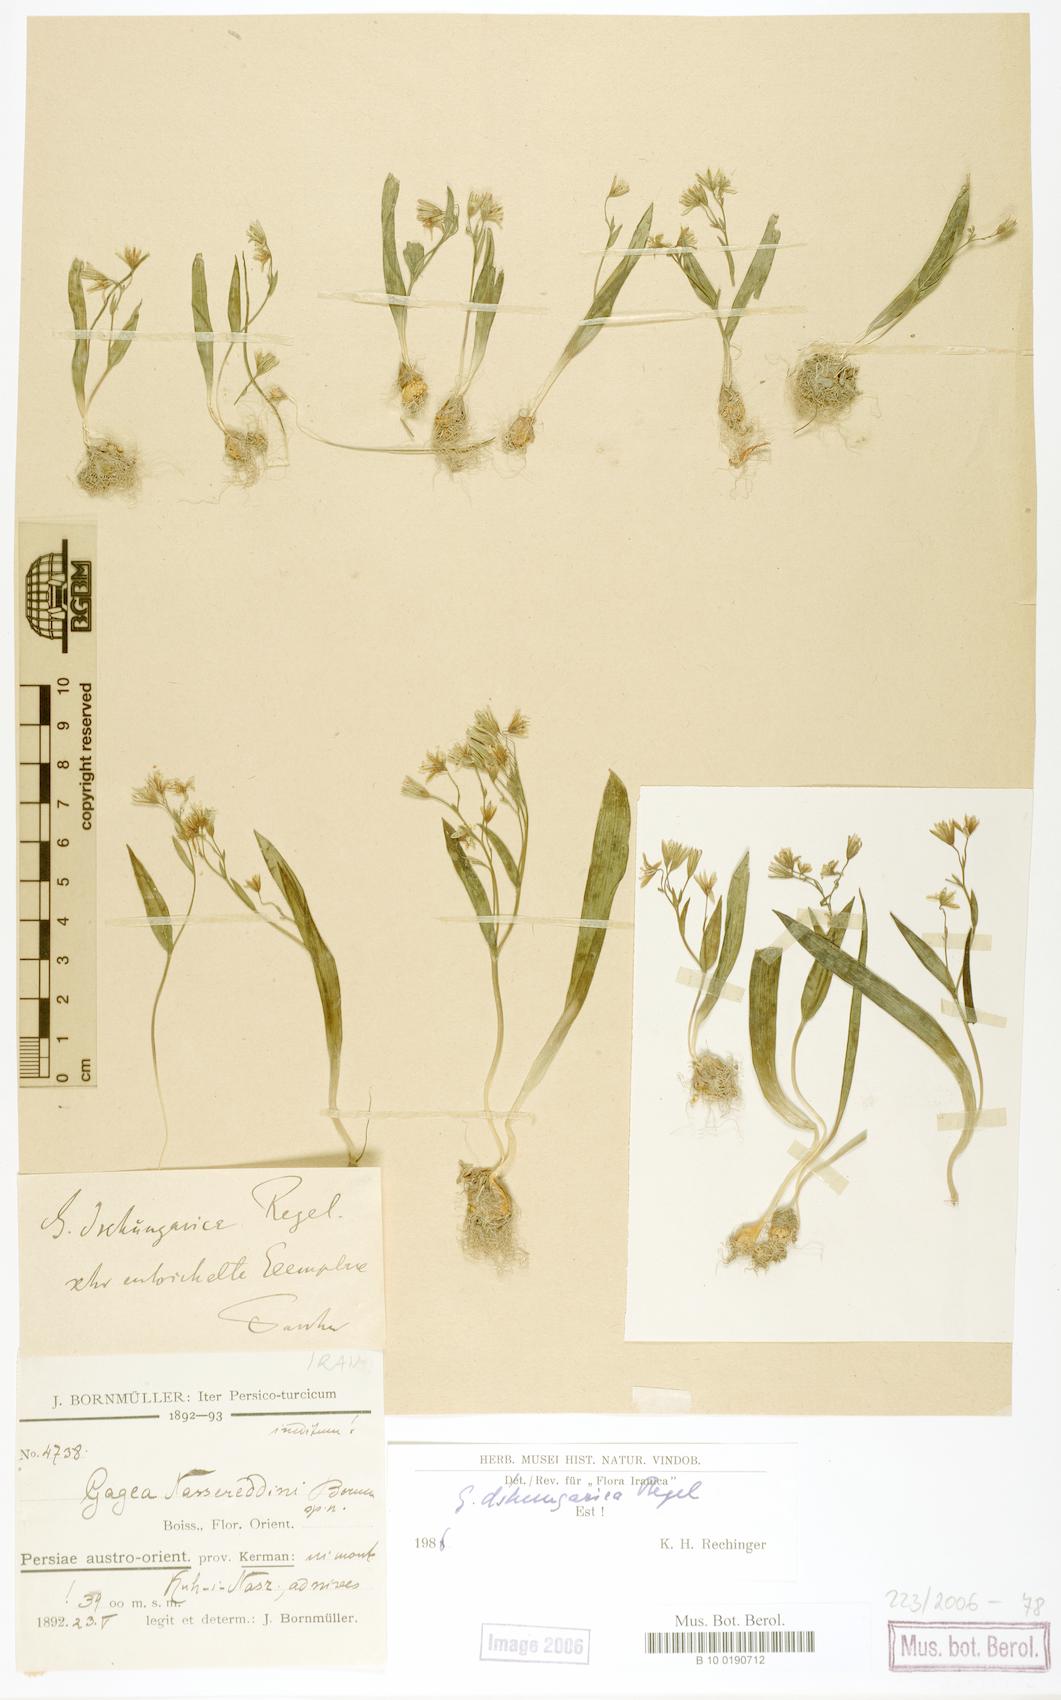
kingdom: Plantae
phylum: Tracheophyta
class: Liliopsida
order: Liliales
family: Liliaceae
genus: Gagea
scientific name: Gagea dschungarica
